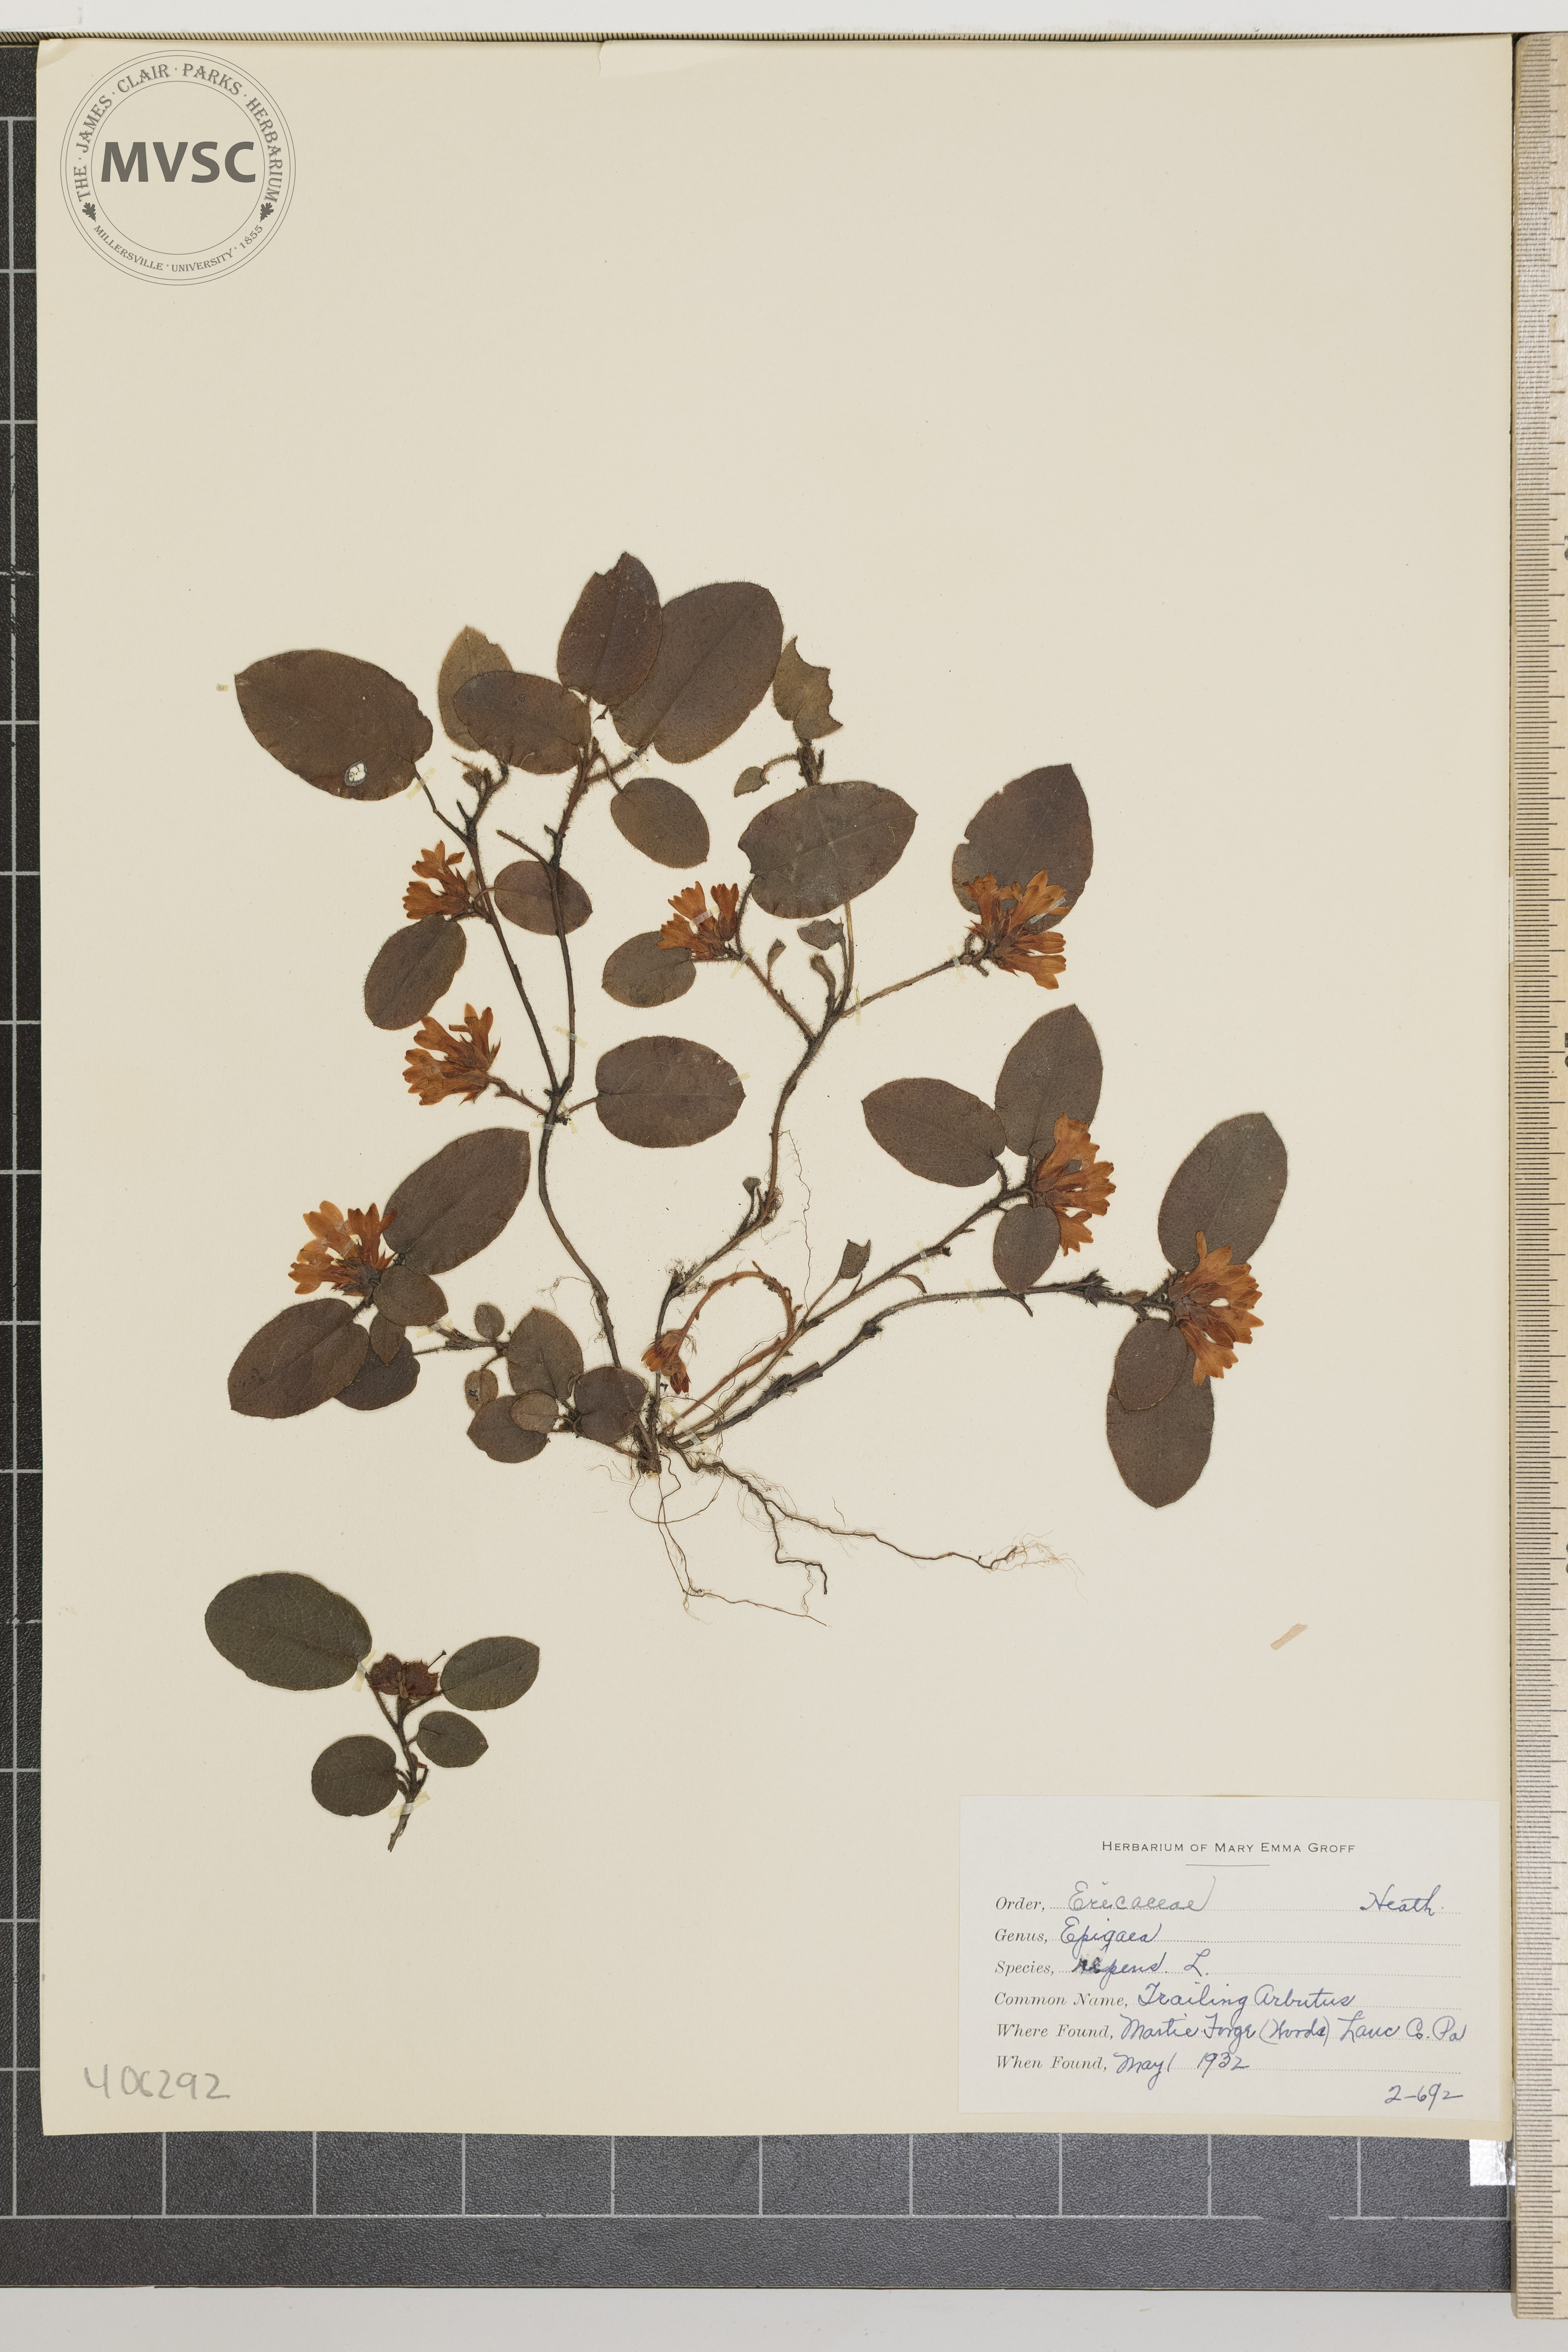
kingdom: Plantae
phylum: Tracheophyta
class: Magnoliopsida
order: Ericales
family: Ericaceae
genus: Epigaea
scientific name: Epigaea repens
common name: Trailing Arbutus
